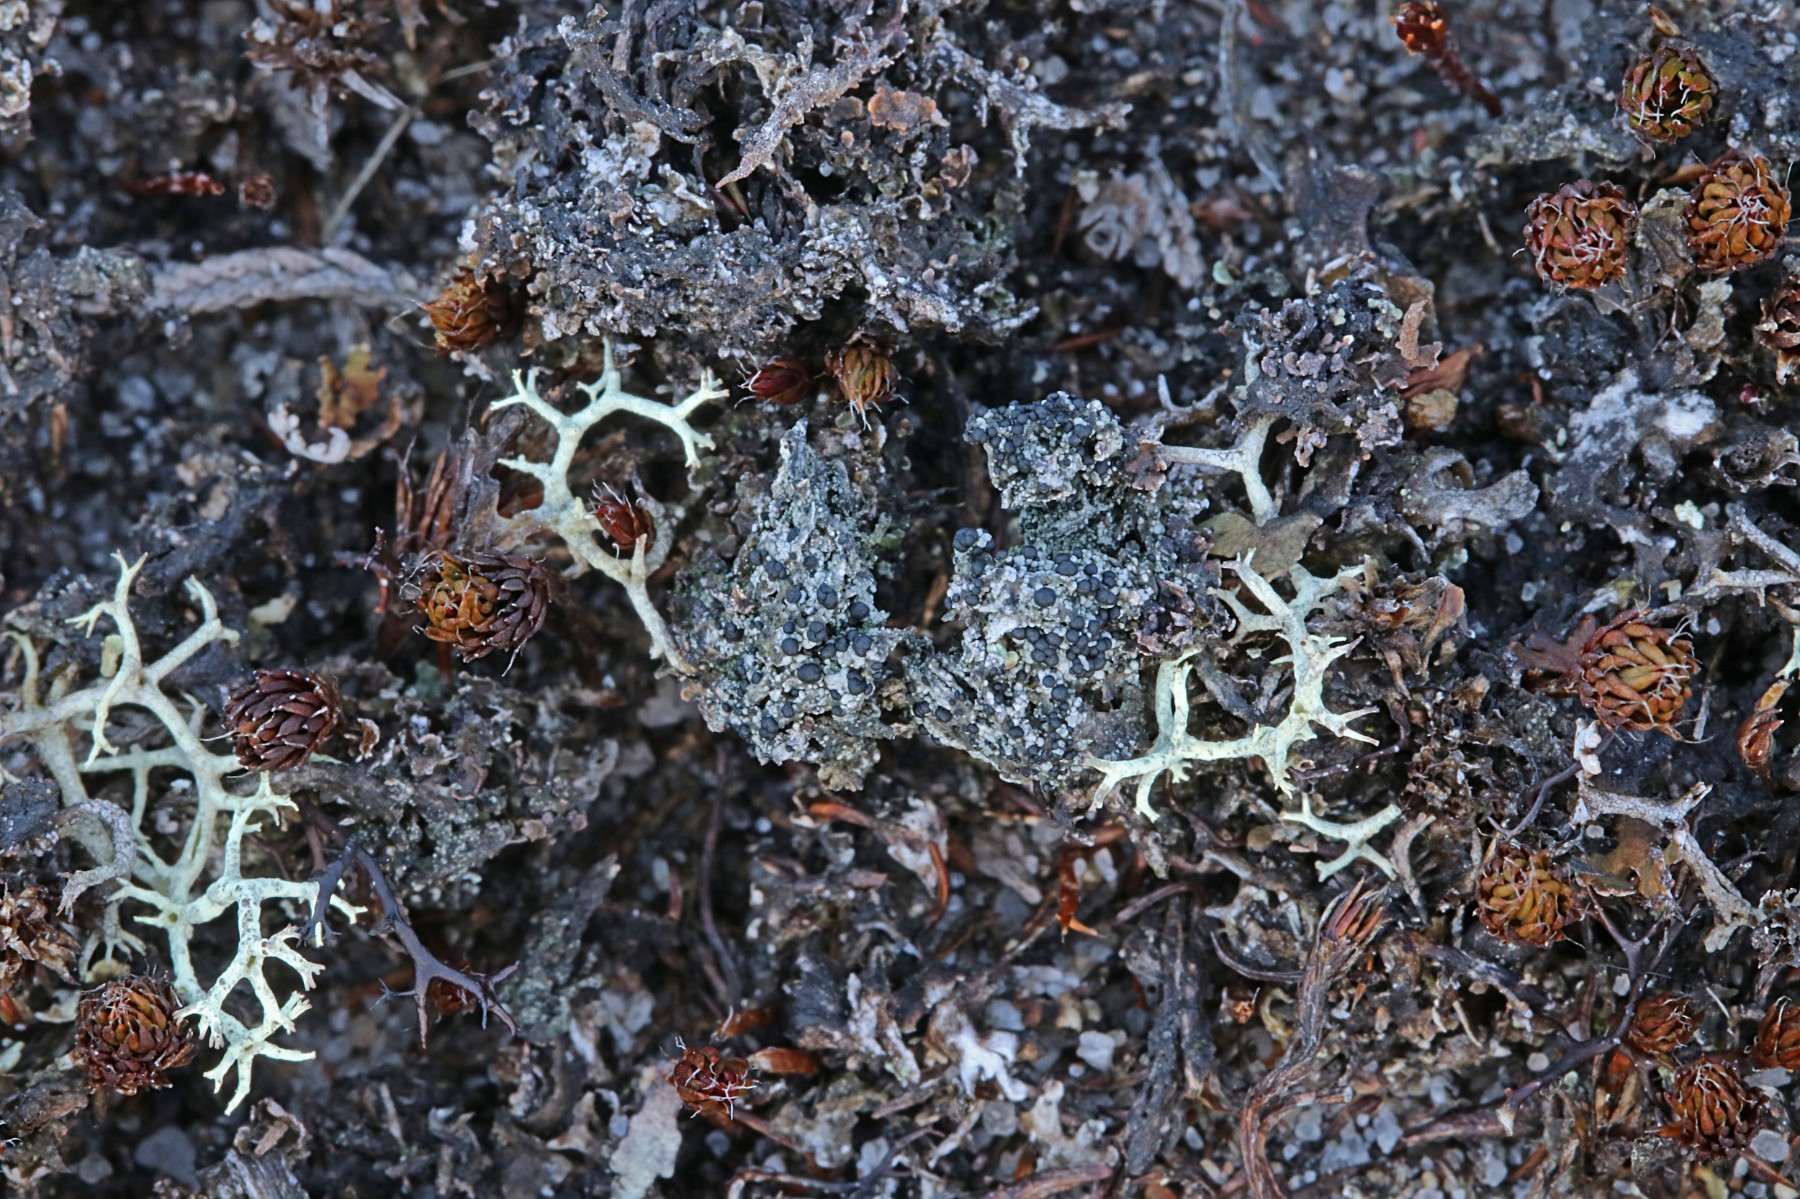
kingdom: Fungi
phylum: Ascomycota
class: Lecanoromycetes
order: Lecanorales
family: Byssolomataceae
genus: Micarea
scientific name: Micarea lignaria
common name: tørve-knaplav
